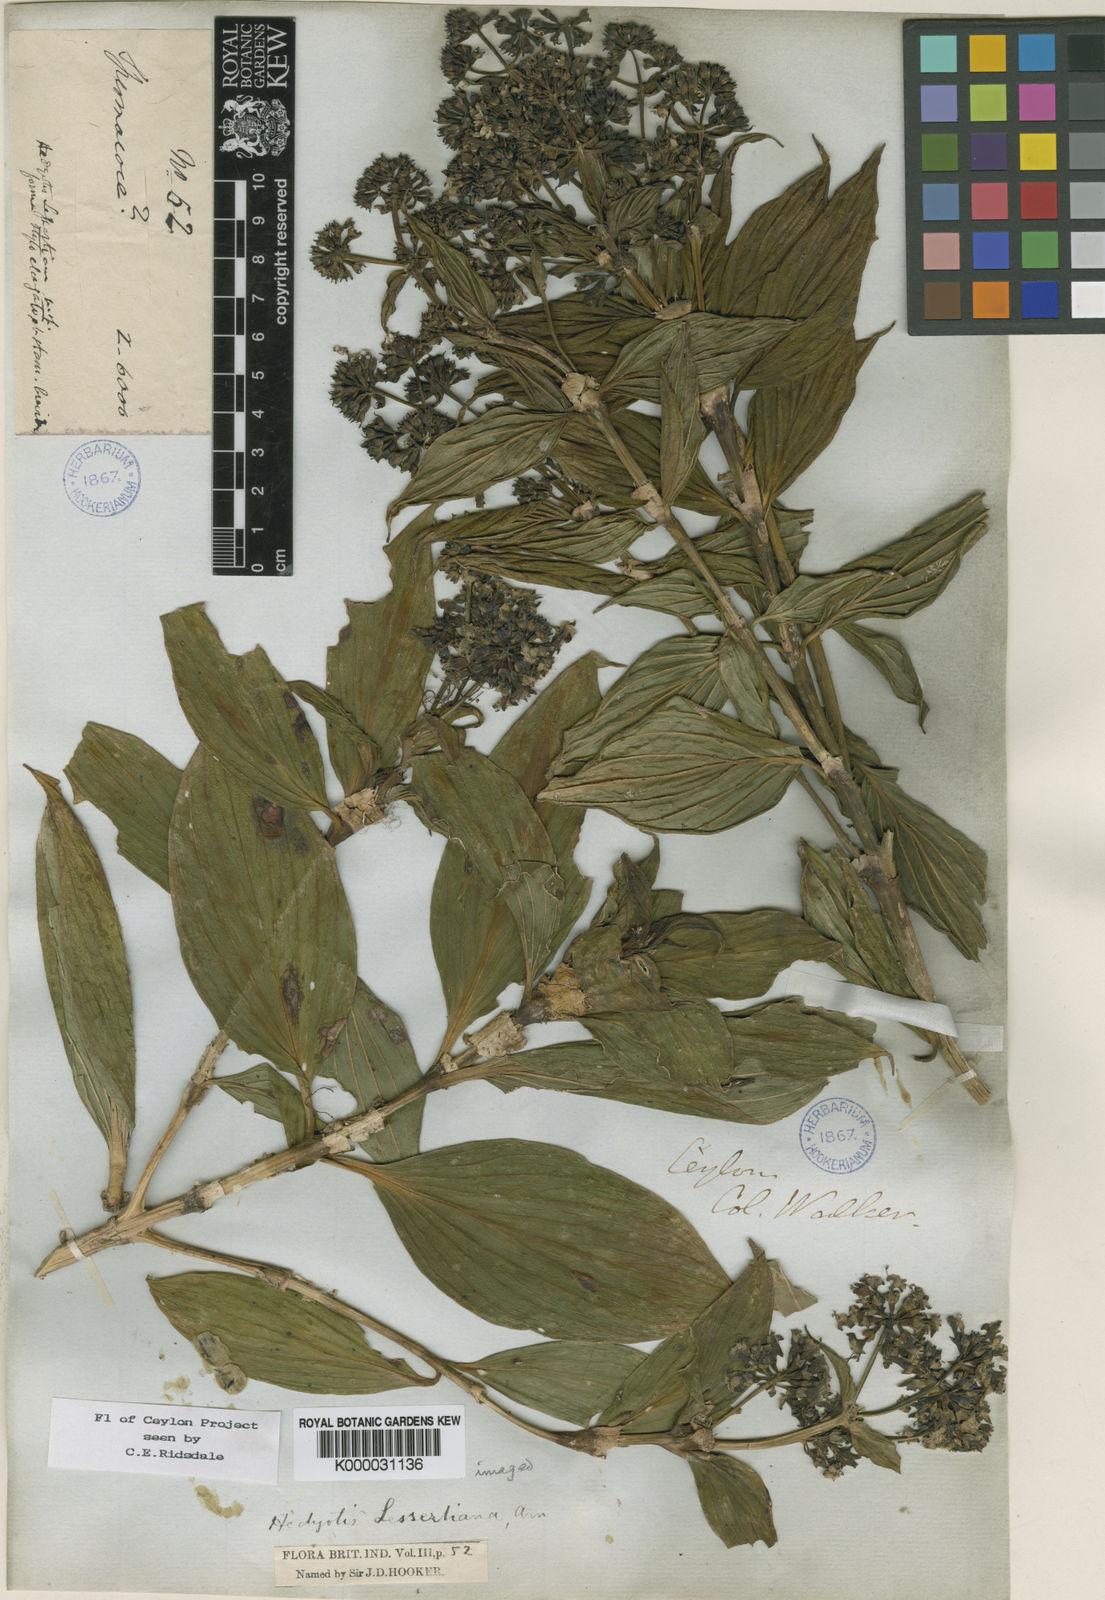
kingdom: Plantae
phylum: Tracheophyta
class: Magnoliopsida
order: Gentianales
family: Rubiaceae
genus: Hedyotis
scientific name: Hedyotis lessertiana
